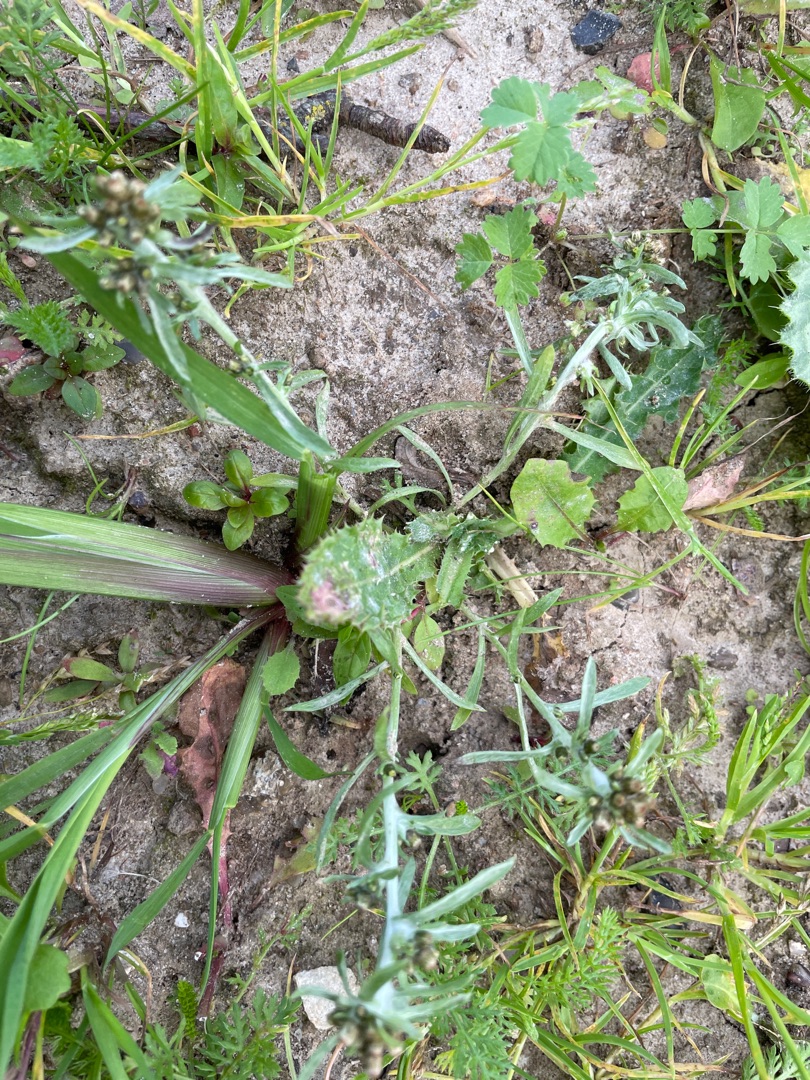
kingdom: Plantae
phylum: Tracheophyta
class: Magnoliopsida
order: Asterales
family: Asteraceae
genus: Gnaphalium
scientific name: Gnaphalium uliginosum
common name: Sump-evighedsblomst
